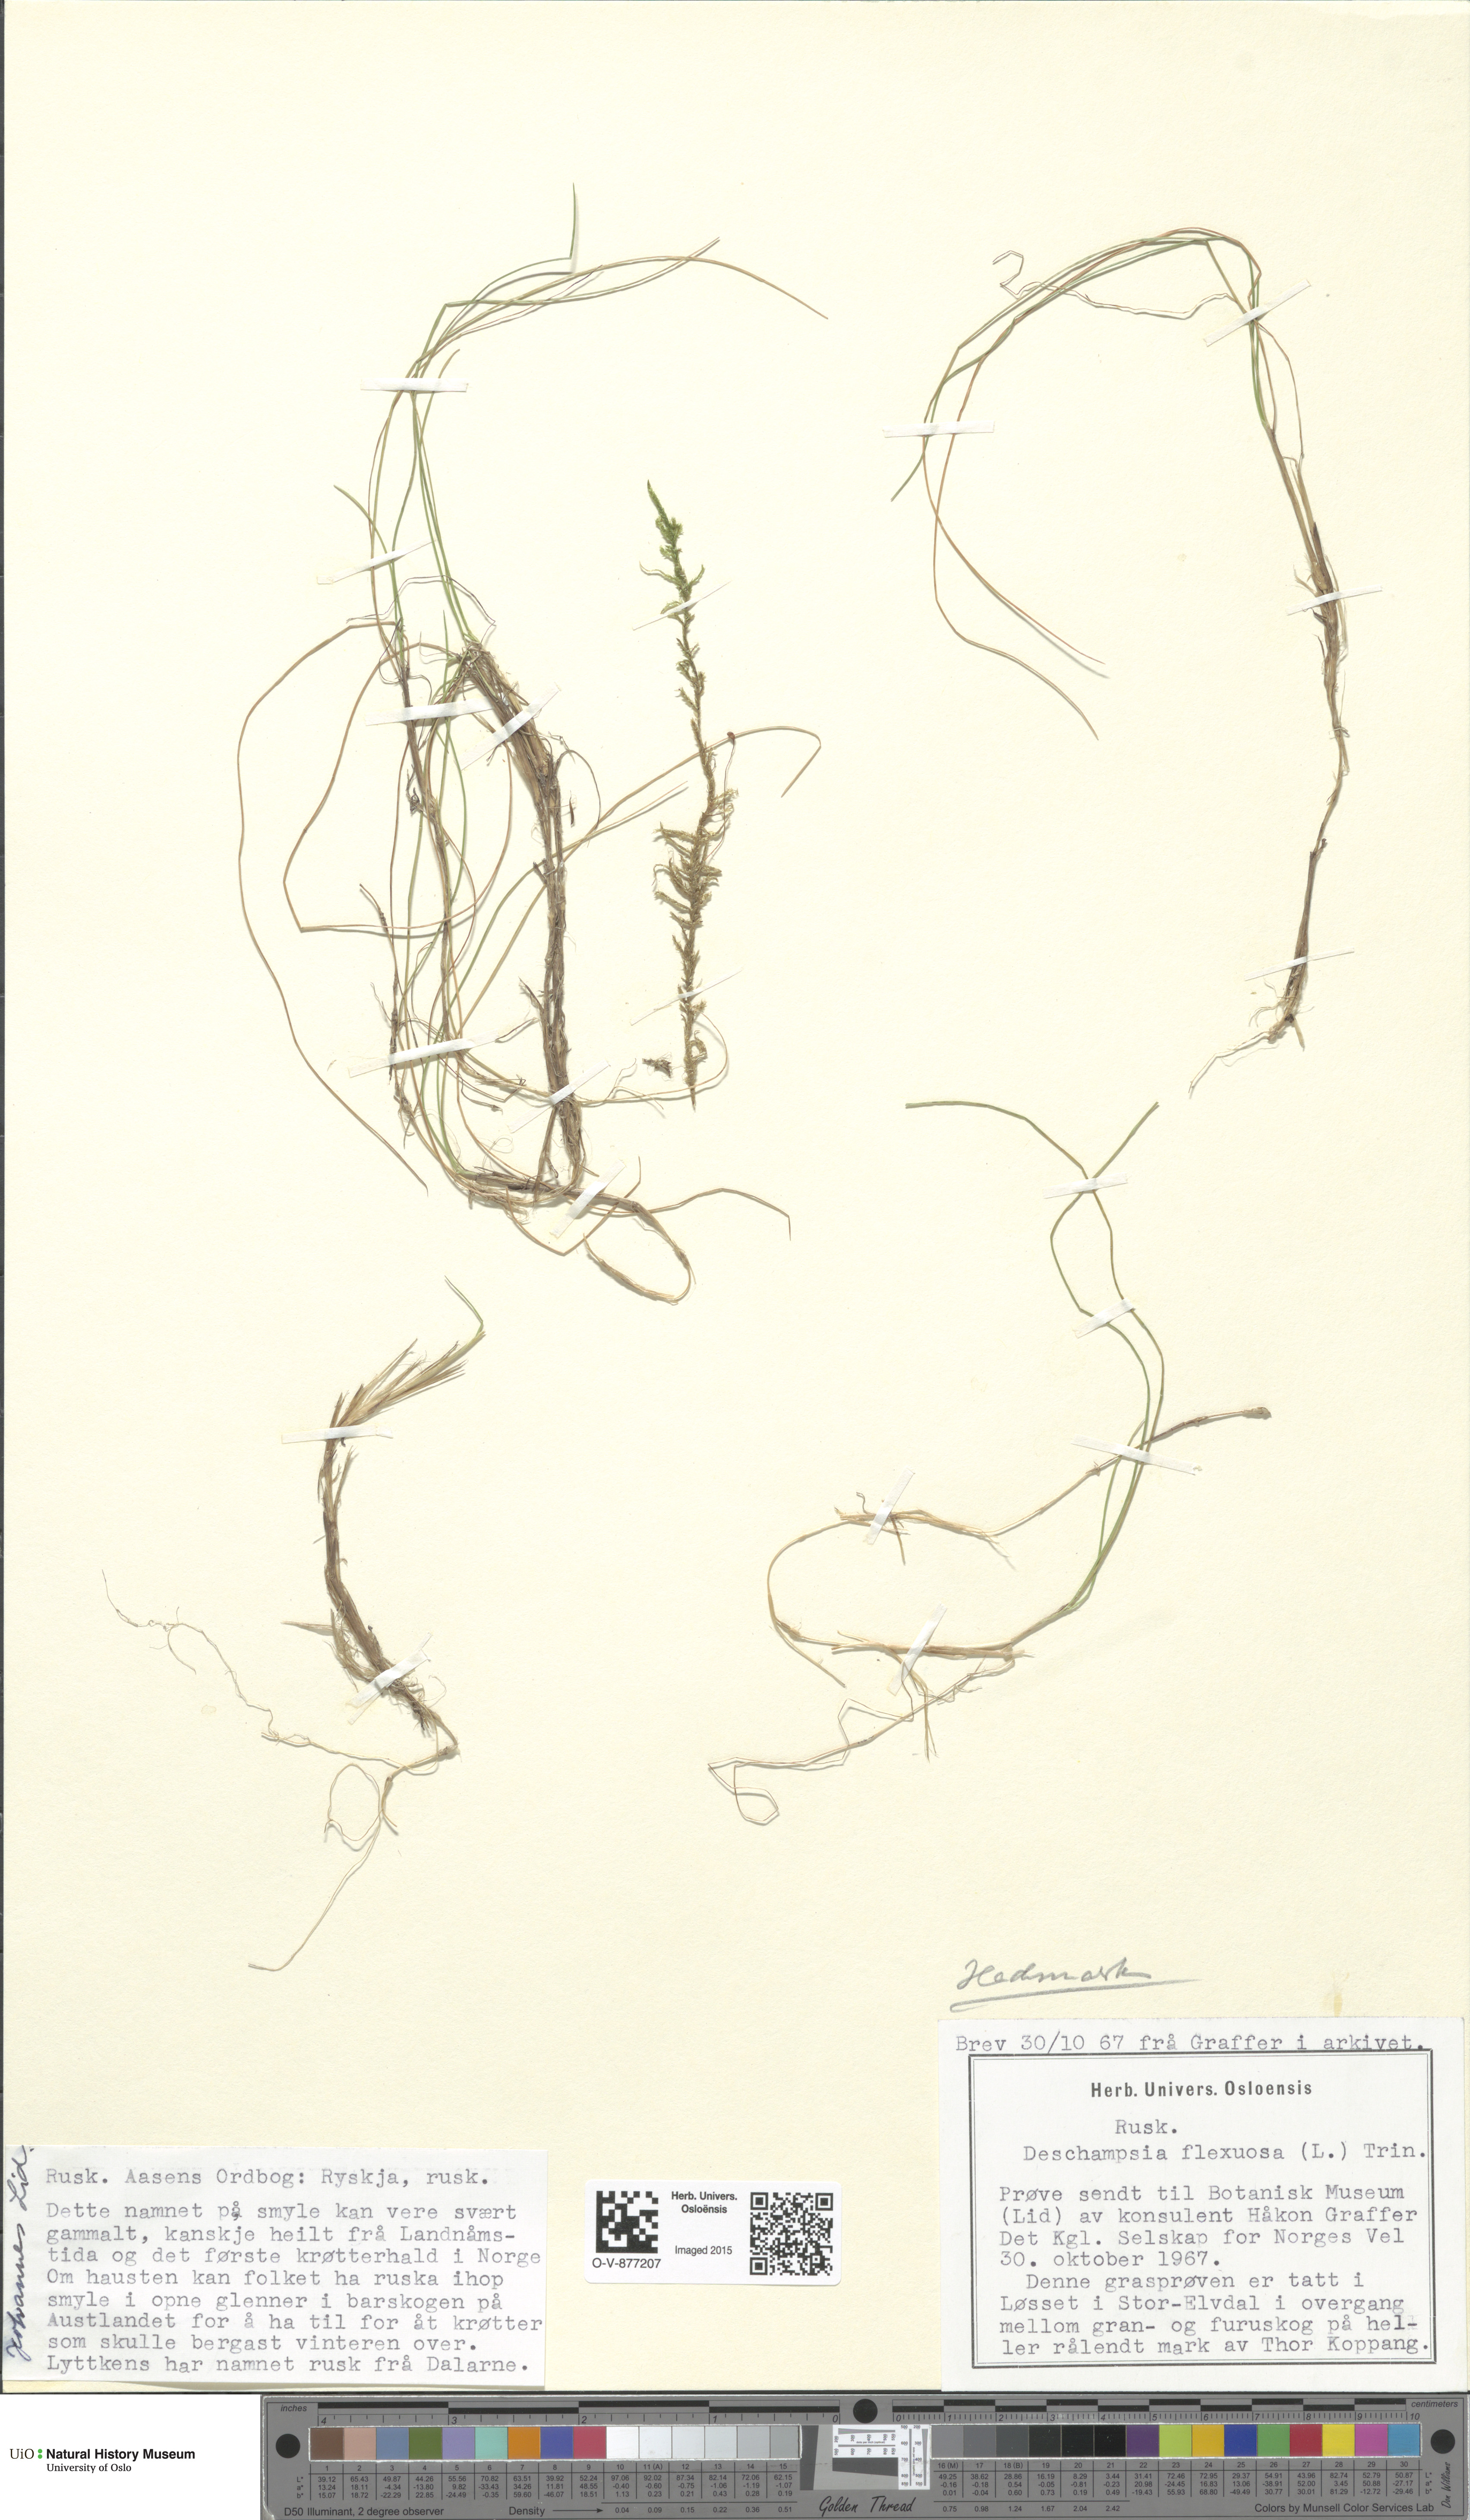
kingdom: Plantae
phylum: Tracheophyta
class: Liliopsida
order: Poales
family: Poaceae
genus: Avenella
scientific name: Avenella flexuosa
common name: Wavy hairgrass
